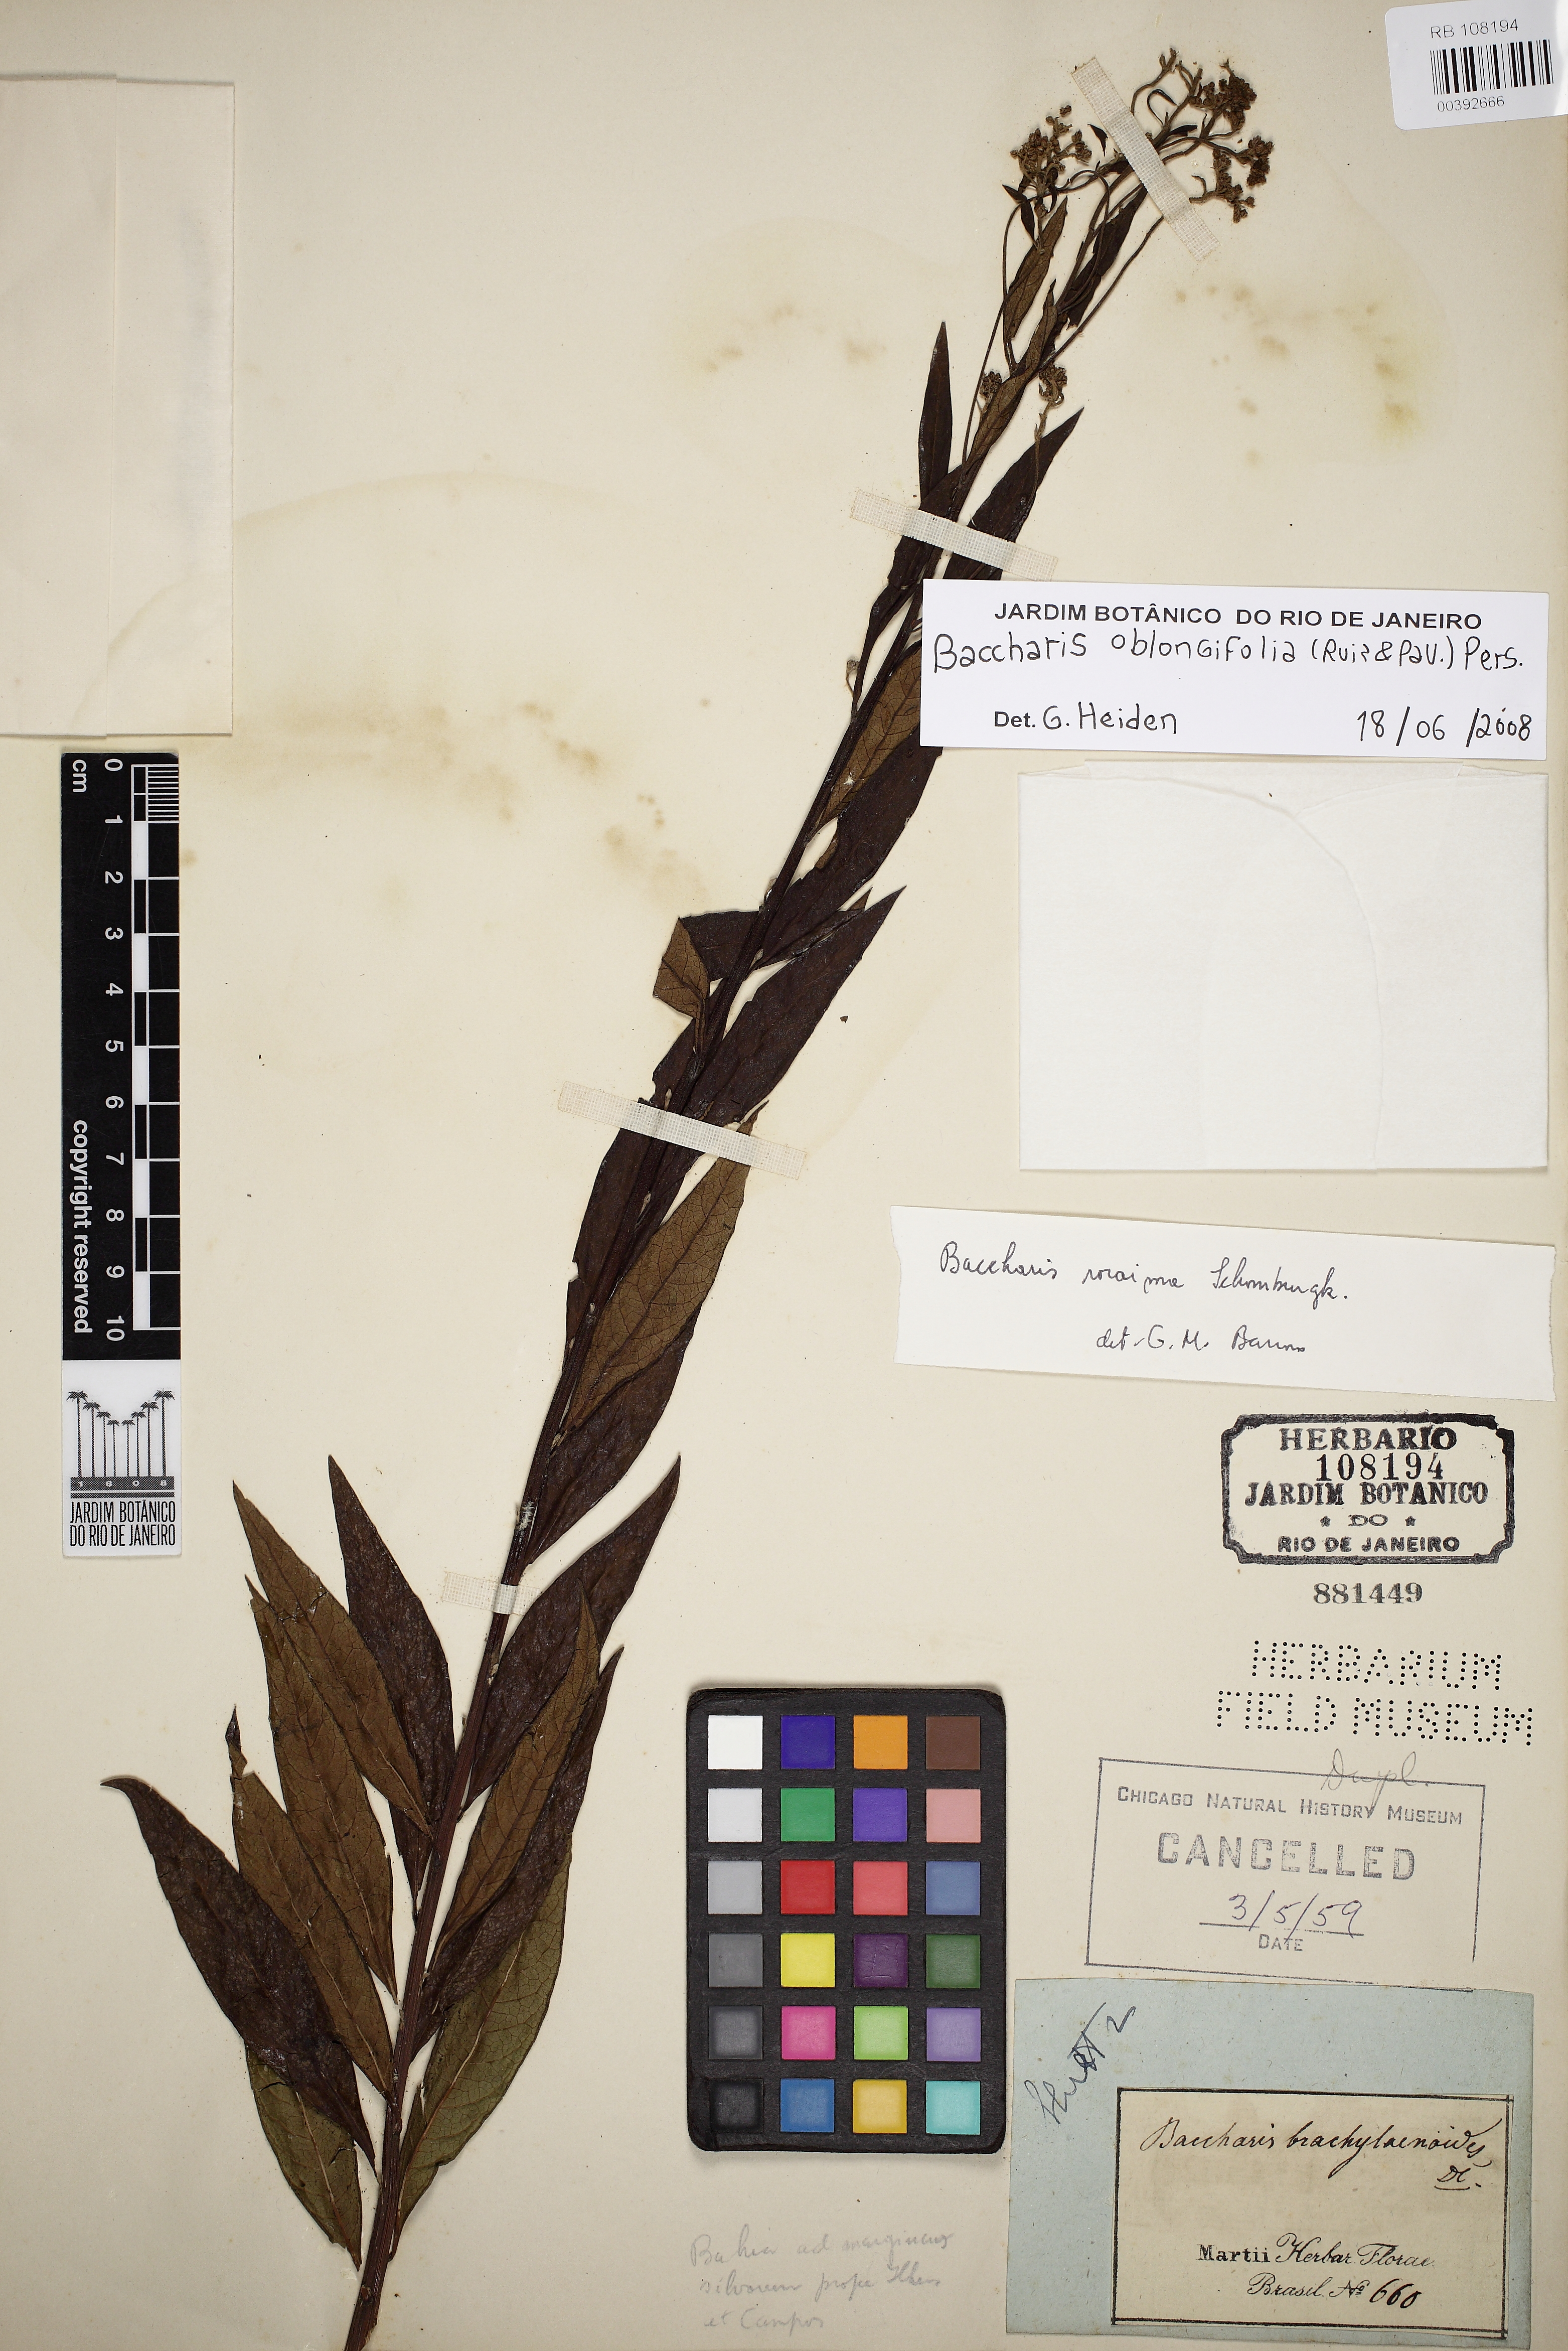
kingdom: Plantae
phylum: Tracheophyta
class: Magnoliopsida
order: Asterales
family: Asteraceae
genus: Baccharis
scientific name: Baccharis oblongifolia
